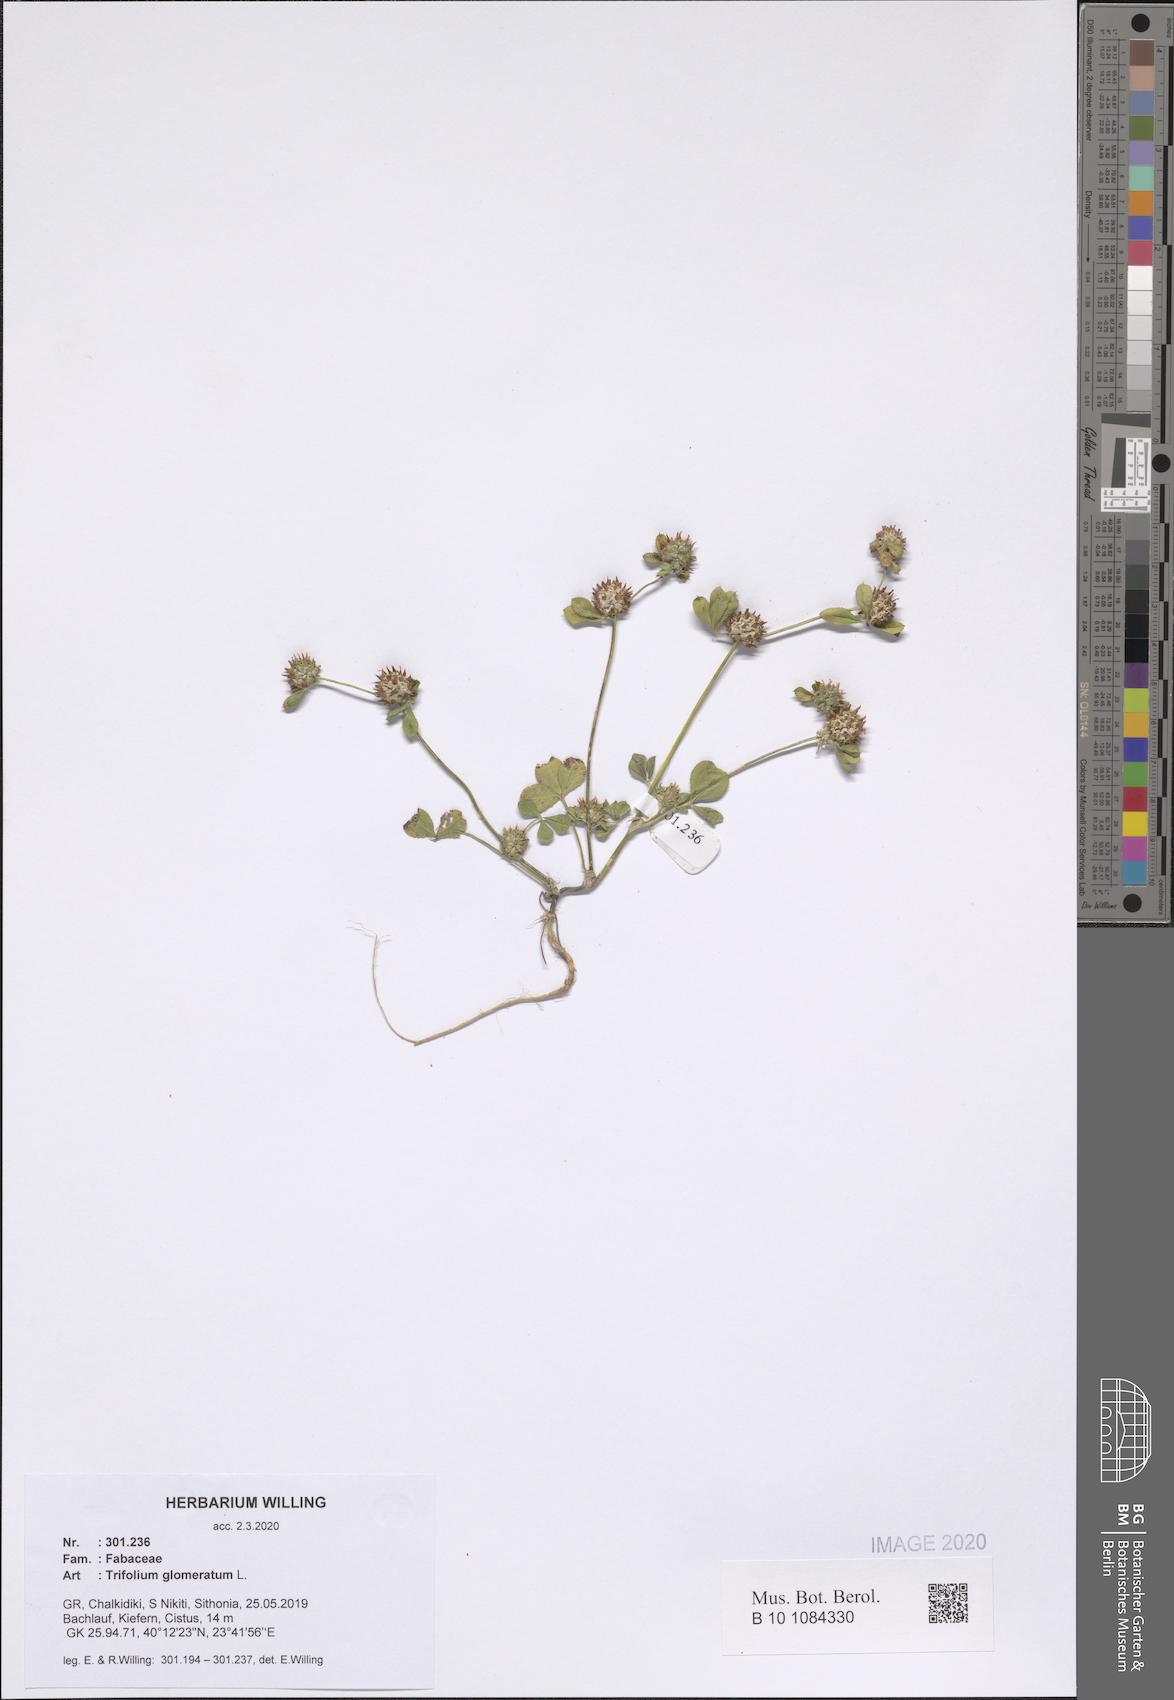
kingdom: Plantae
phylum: Tracheophyta
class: Magnoliopsida
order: Fabales
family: Fabaceae
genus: Trifolium
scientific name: Trifolium glomeratum
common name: Clustered clover
